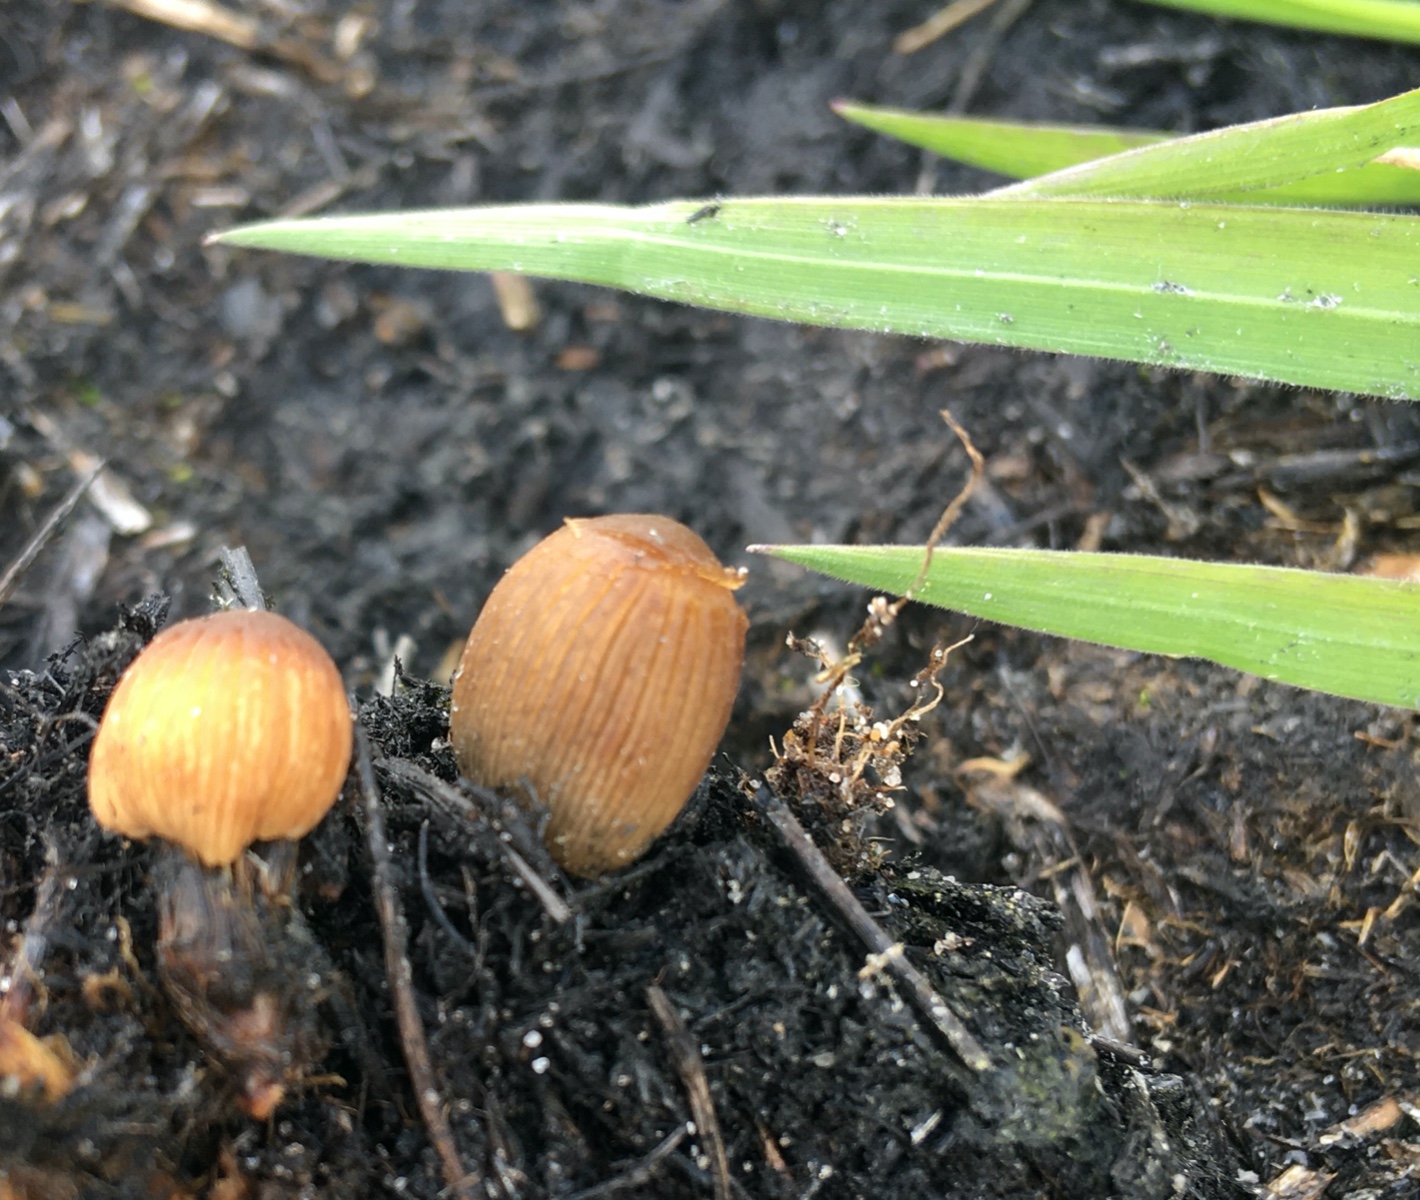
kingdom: Fungi
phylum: Basidiomycota
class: Agaricomycetes
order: Agaricales
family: Psathyrellaceae
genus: Tulosesus
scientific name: Tulosesus angulatus
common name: kul-blækhat
